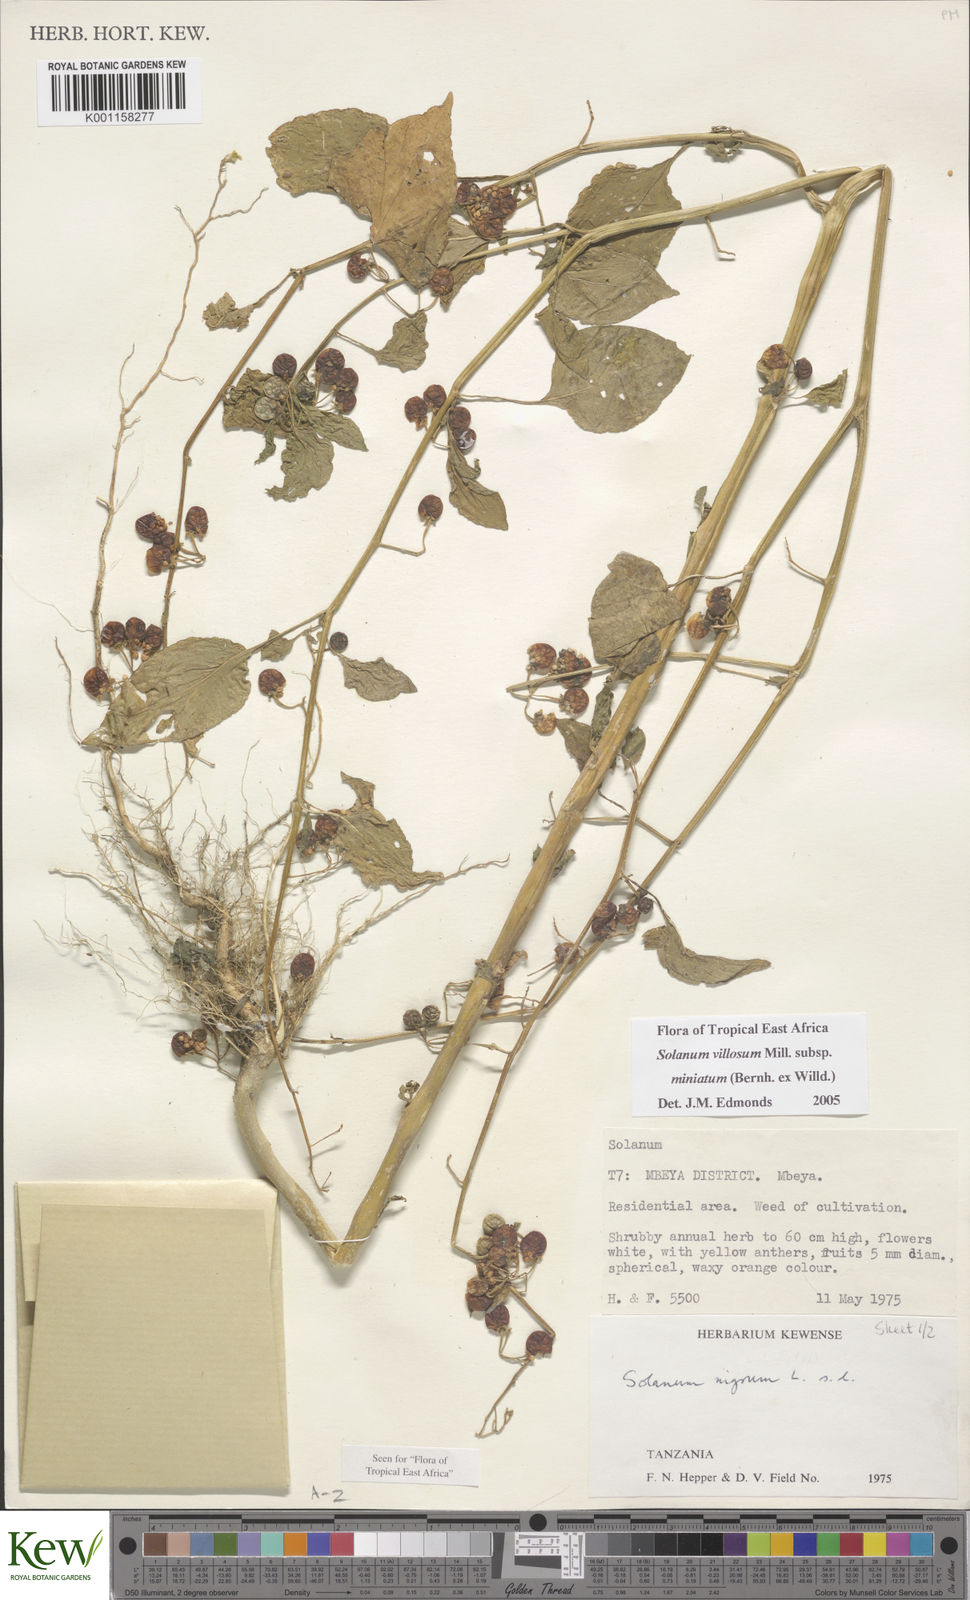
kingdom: Plantae
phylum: Tracheophyta
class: Magnoliopsida
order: Solanales
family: Solanaceae
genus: Solanum
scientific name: Solanum villosum
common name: Red nightshade
